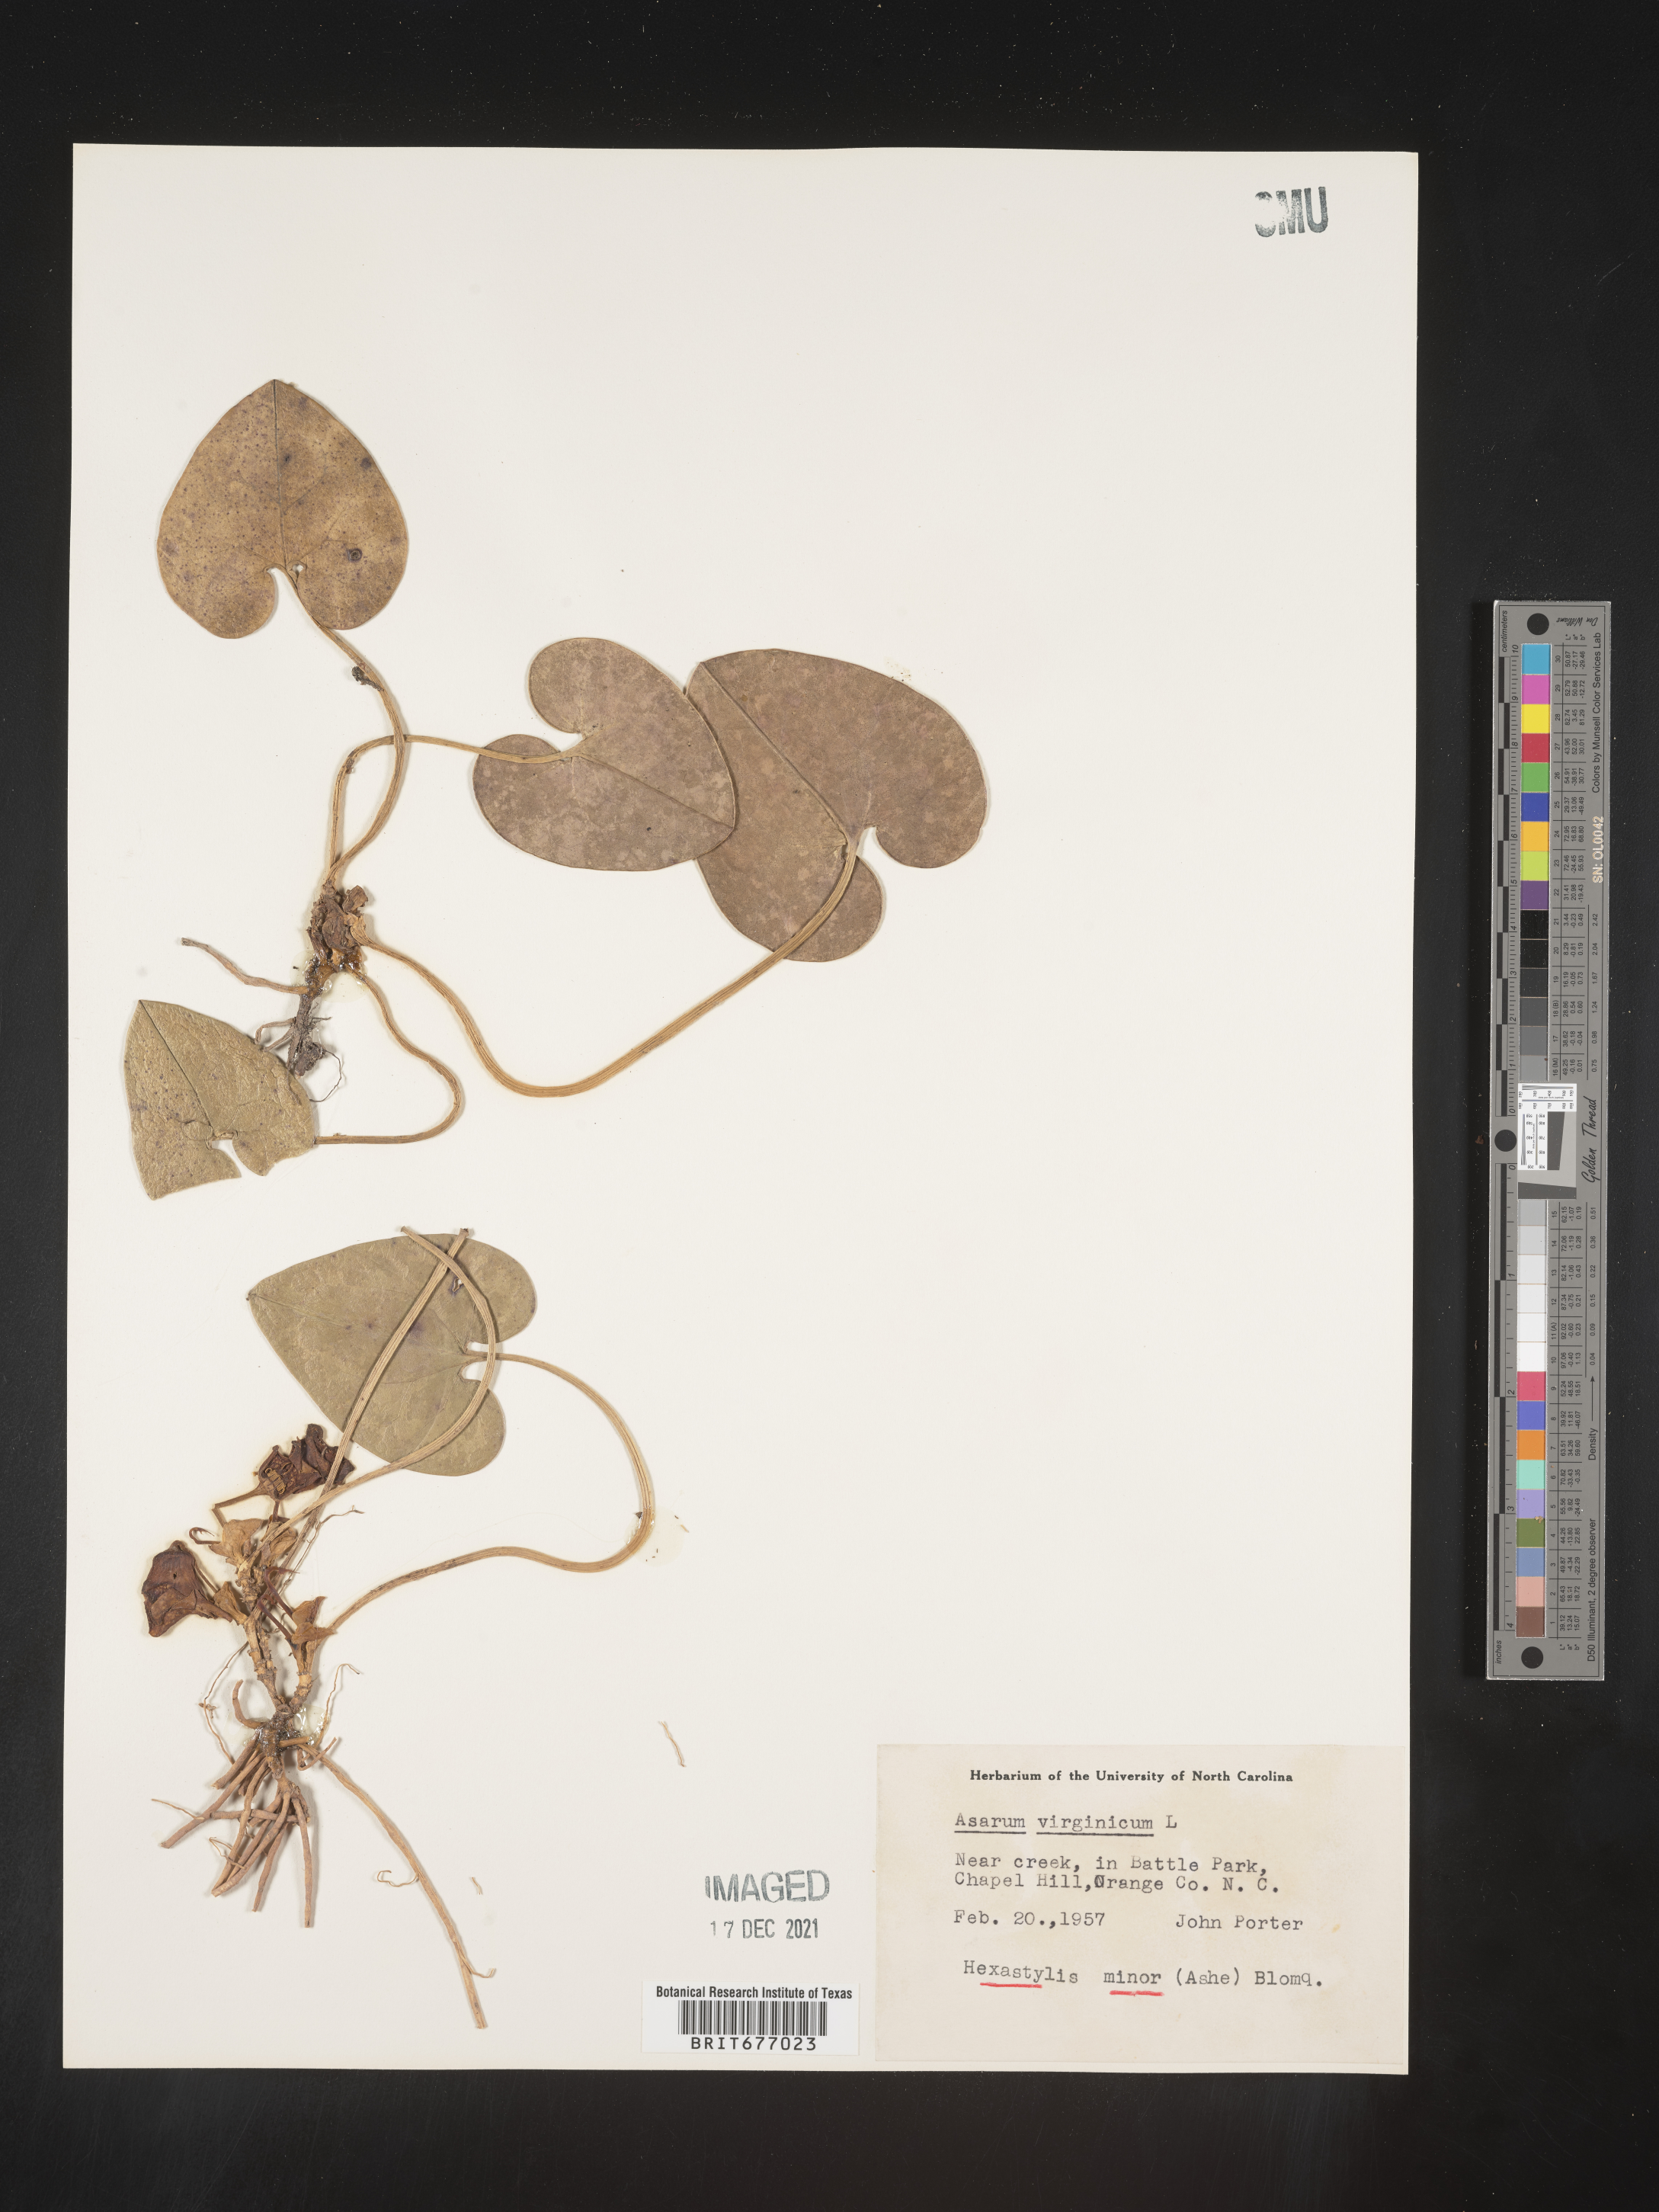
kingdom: Plantae
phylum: Tracheophyta
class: Magnoliopsida
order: Piperales
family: Aristolochiaceae
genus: Asarum
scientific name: Asarum
